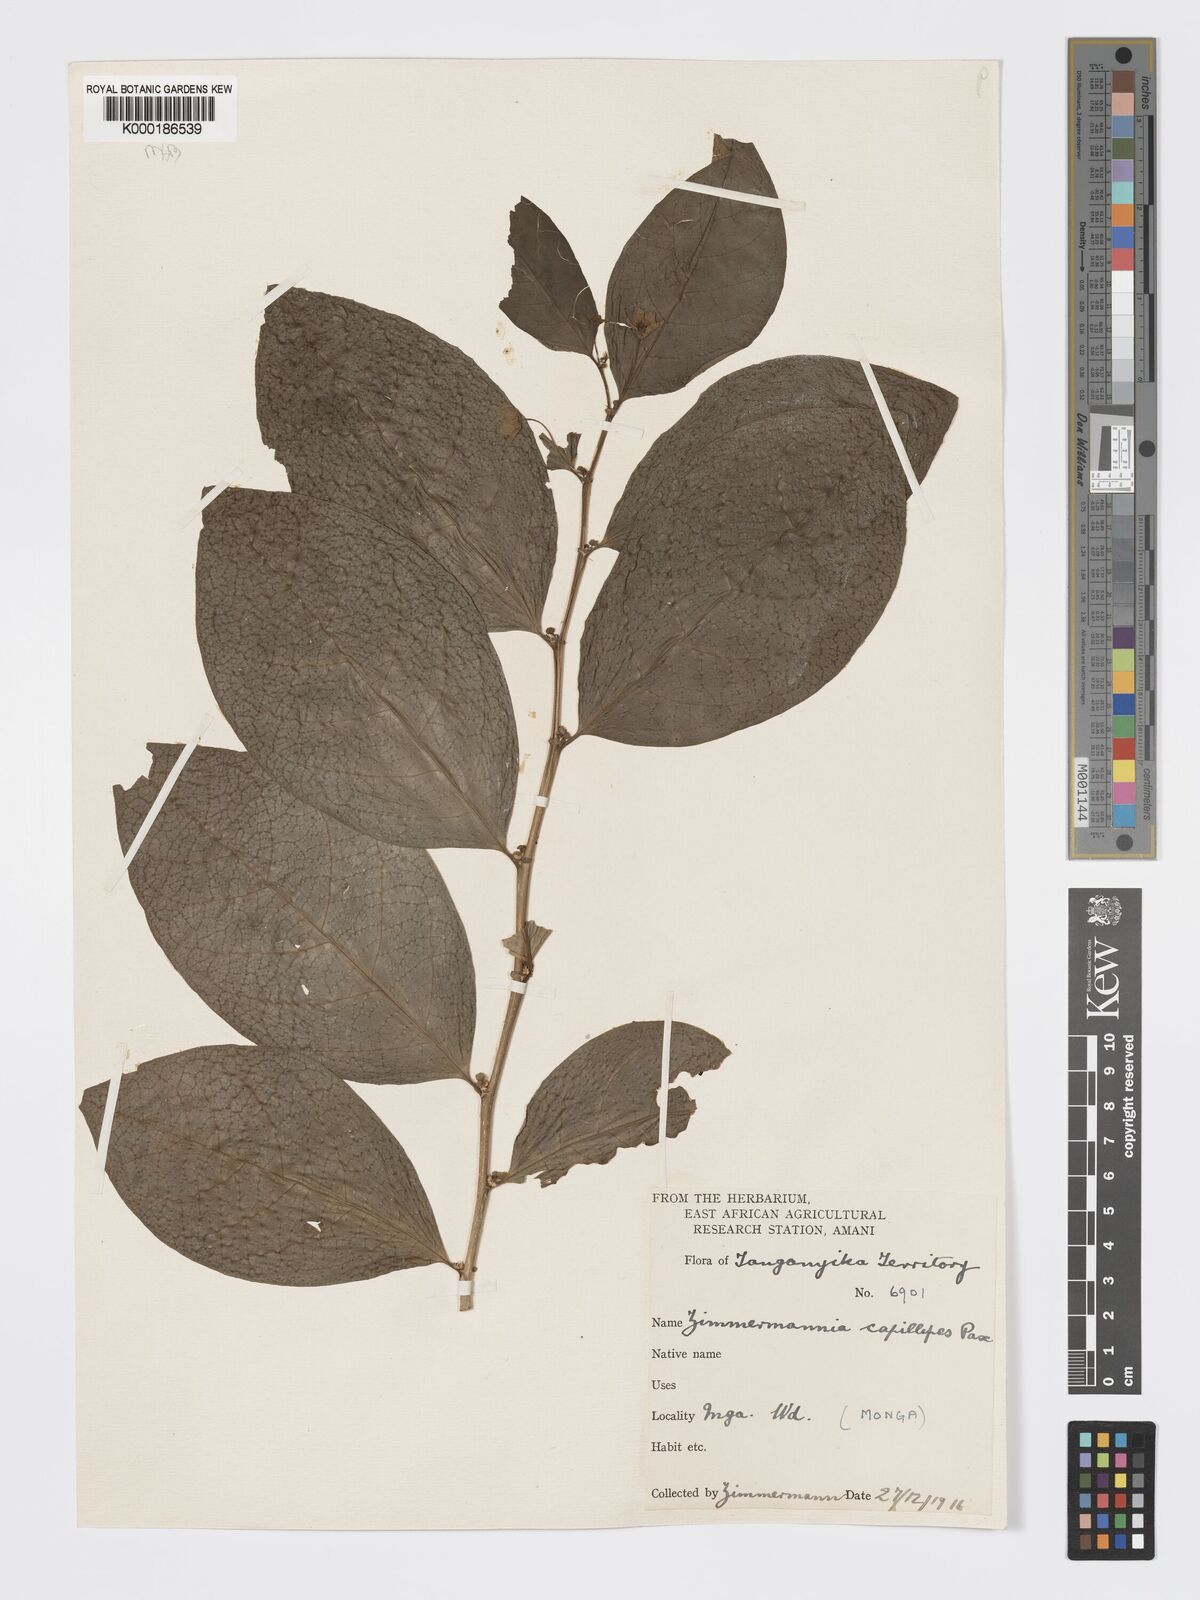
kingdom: Plantae
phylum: Tracheophyta
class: Magnoliopsida
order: Malpighiales
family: Phyllanthaceae
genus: Meineckia
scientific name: Meineckia paxii
